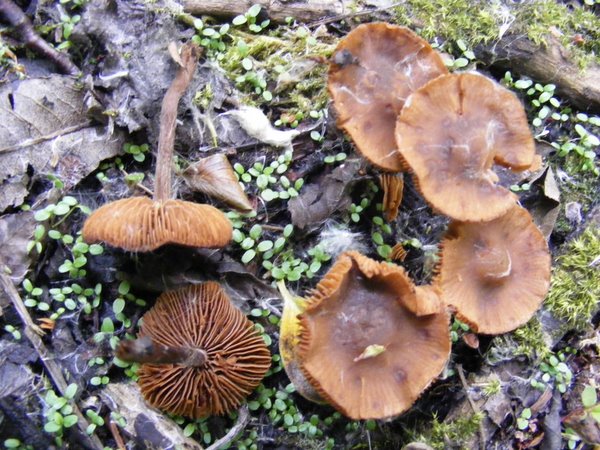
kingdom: Fungi
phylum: Basidiomycota
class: Agaricomycetes
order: Agaricales
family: Hymenogastraceae
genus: Naucoria
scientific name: Naucoria scolecina
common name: mørk elle-knaphat
